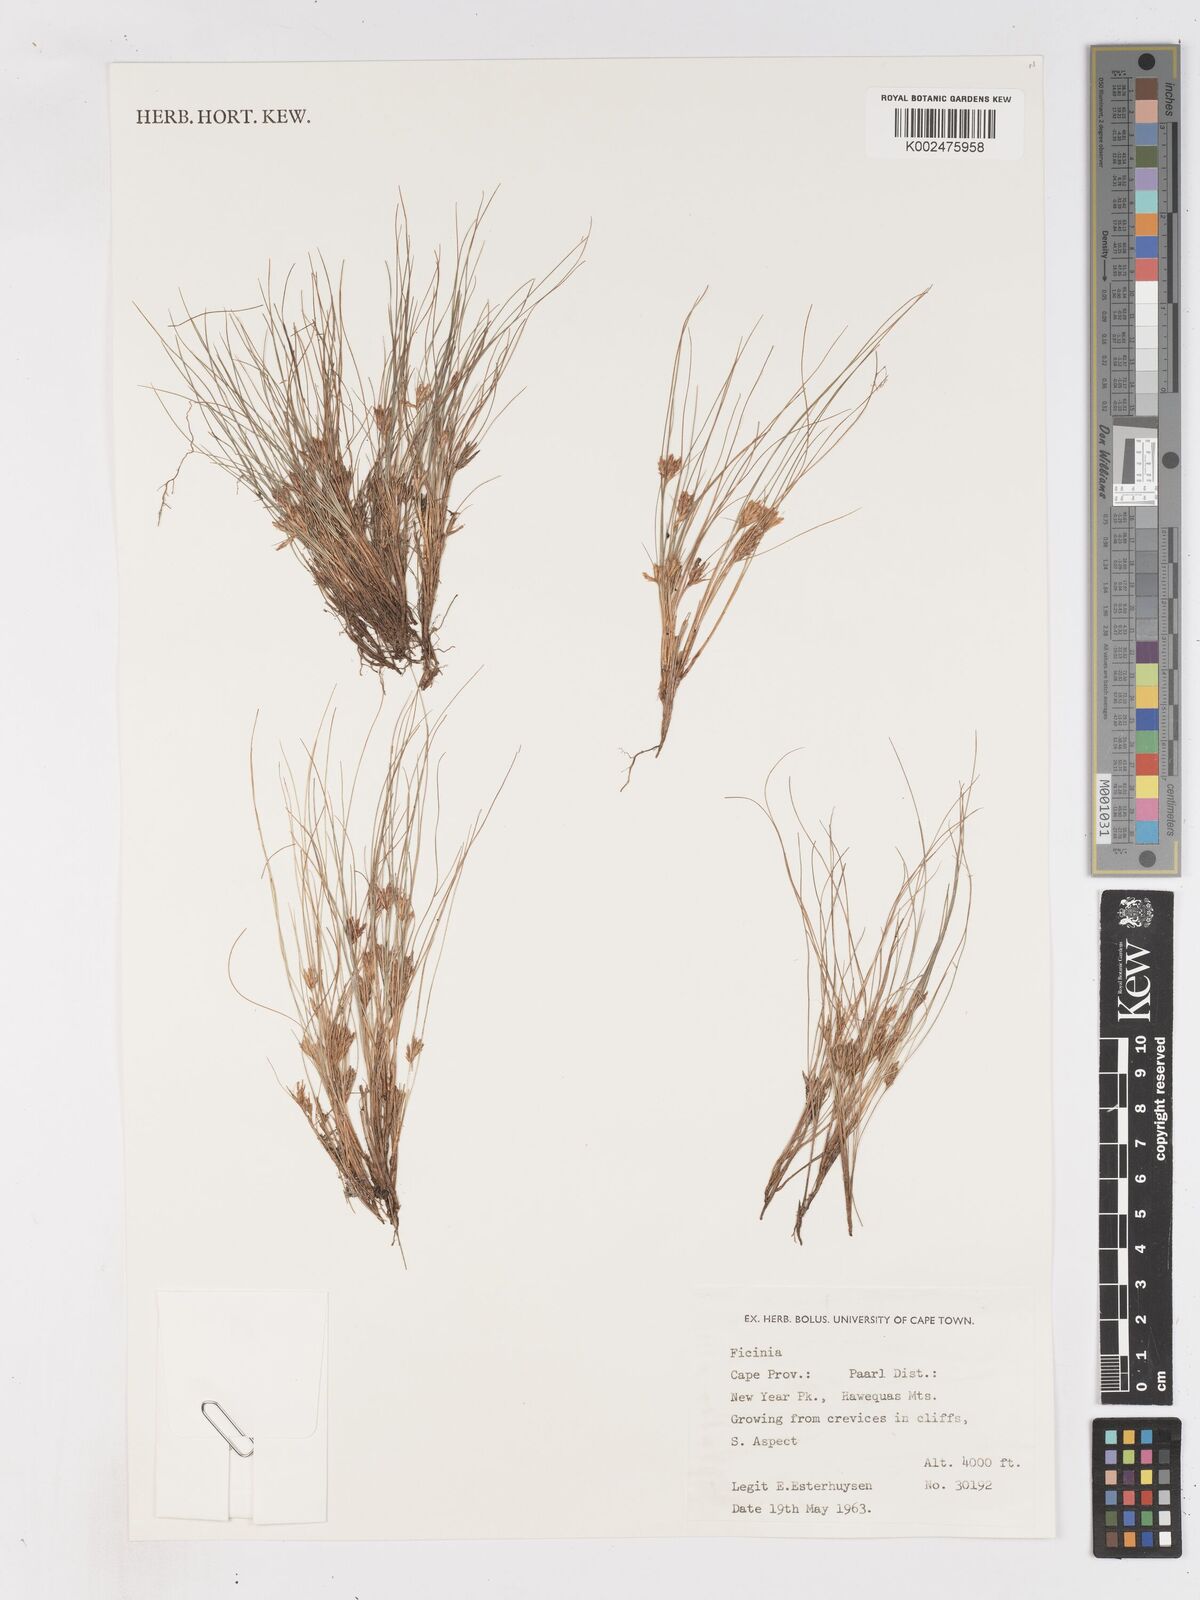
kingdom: Plantae
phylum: Tracheophyta
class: Liliopsida
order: Poales
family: Cyperaceae
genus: Ficinia
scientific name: Ficinia esterhuyseniae
